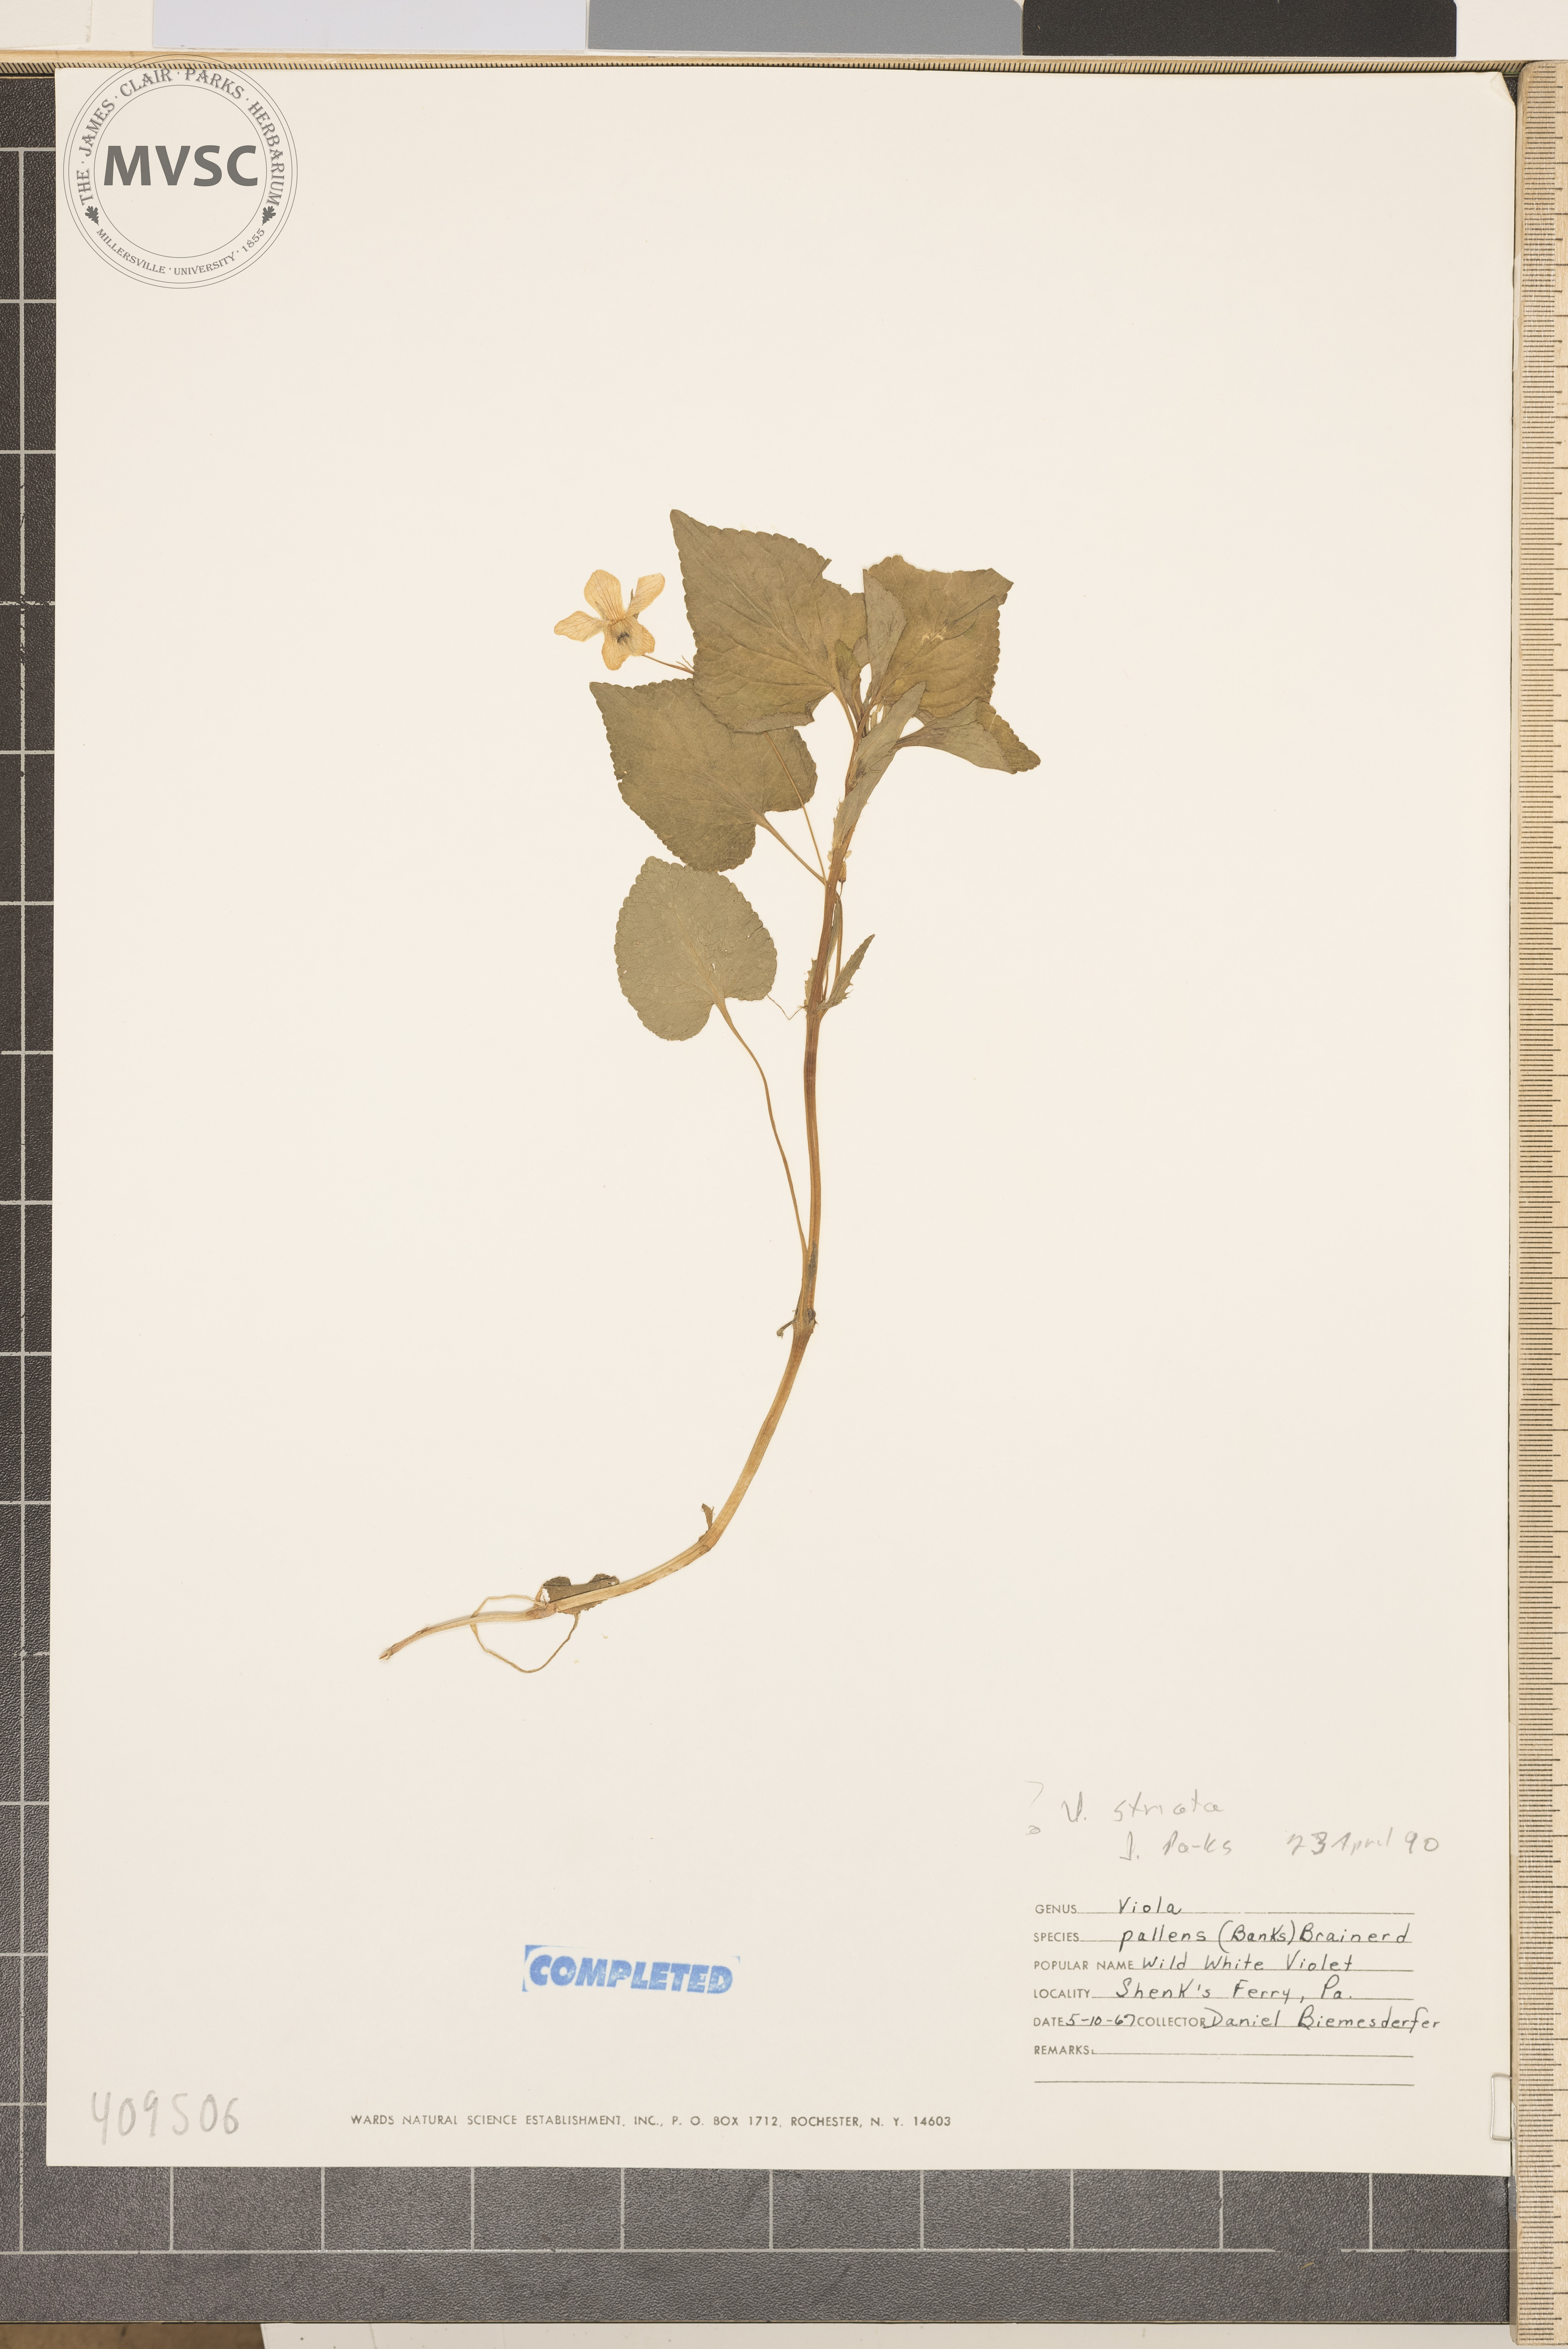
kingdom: Plantae
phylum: Tracheophyta
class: Magnoliopsida
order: Malpighiales
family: Violaceae
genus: Viola
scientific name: Viola striata
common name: striped violet
